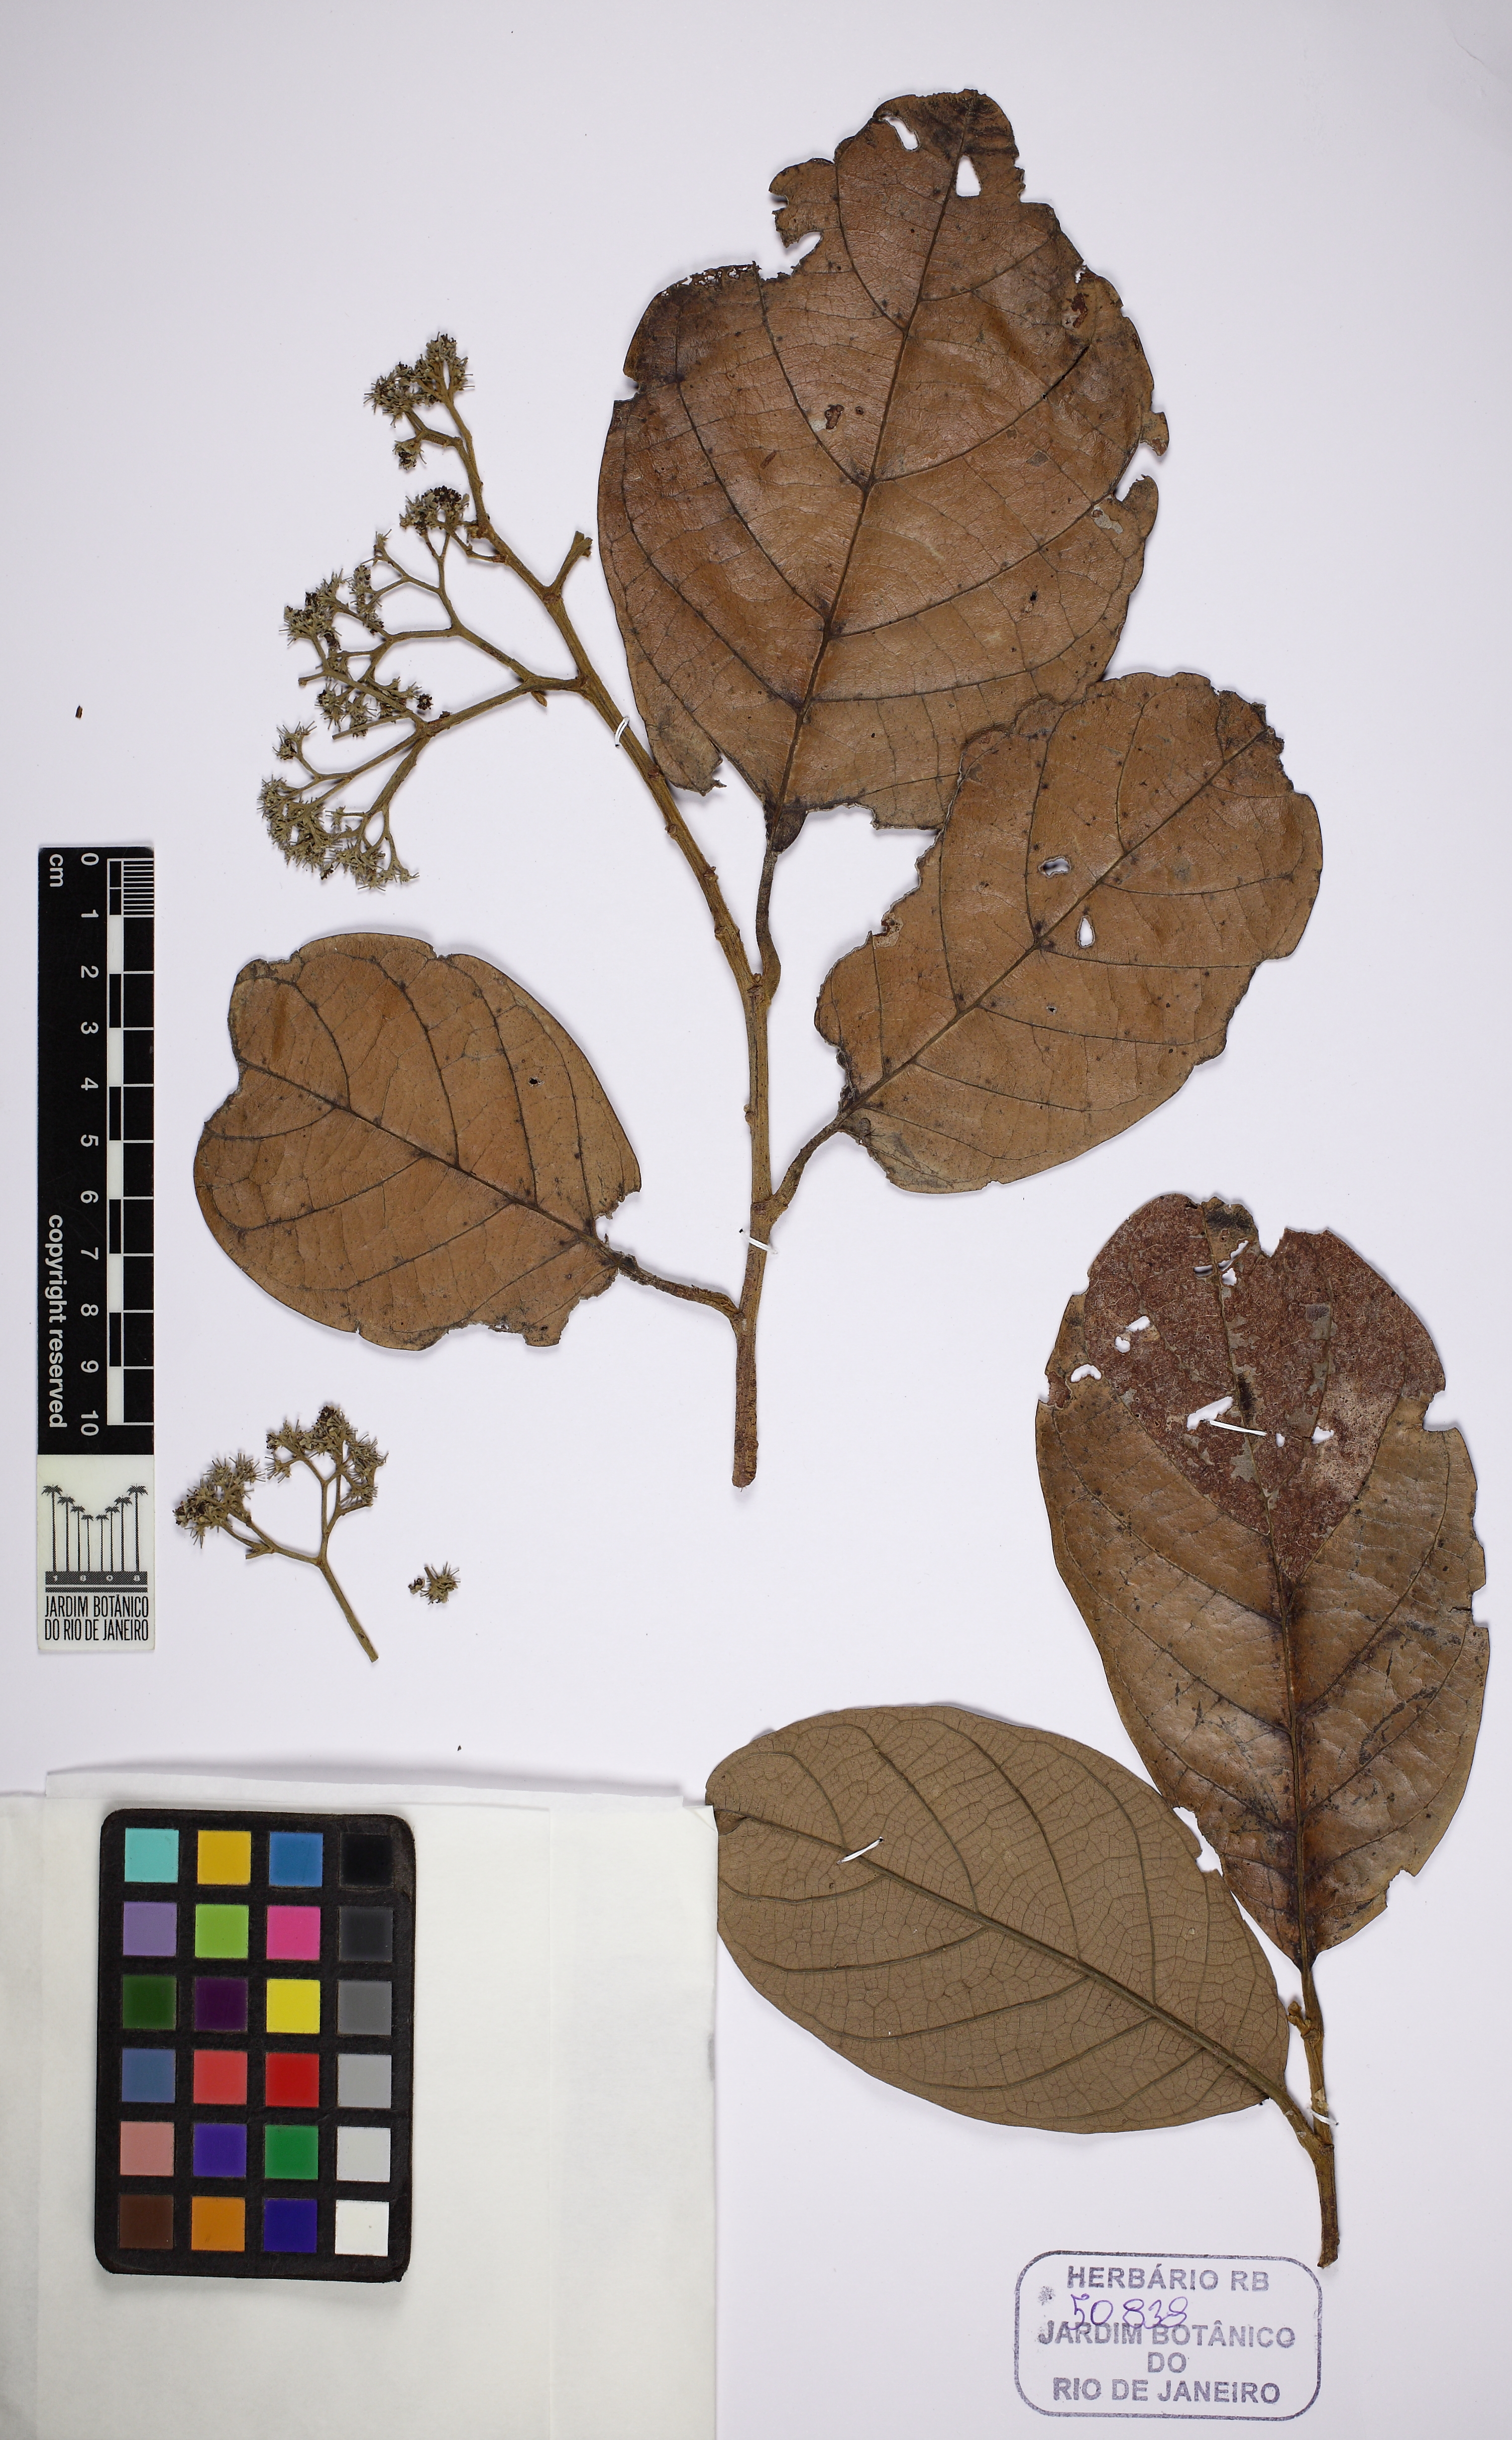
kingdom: Plantae
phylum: Tracheophyta
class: Magnoliopsida
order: Malpighiales
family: Dichapetalaceae
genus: Dichapetalum
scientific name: Dichapetalum latifolium
